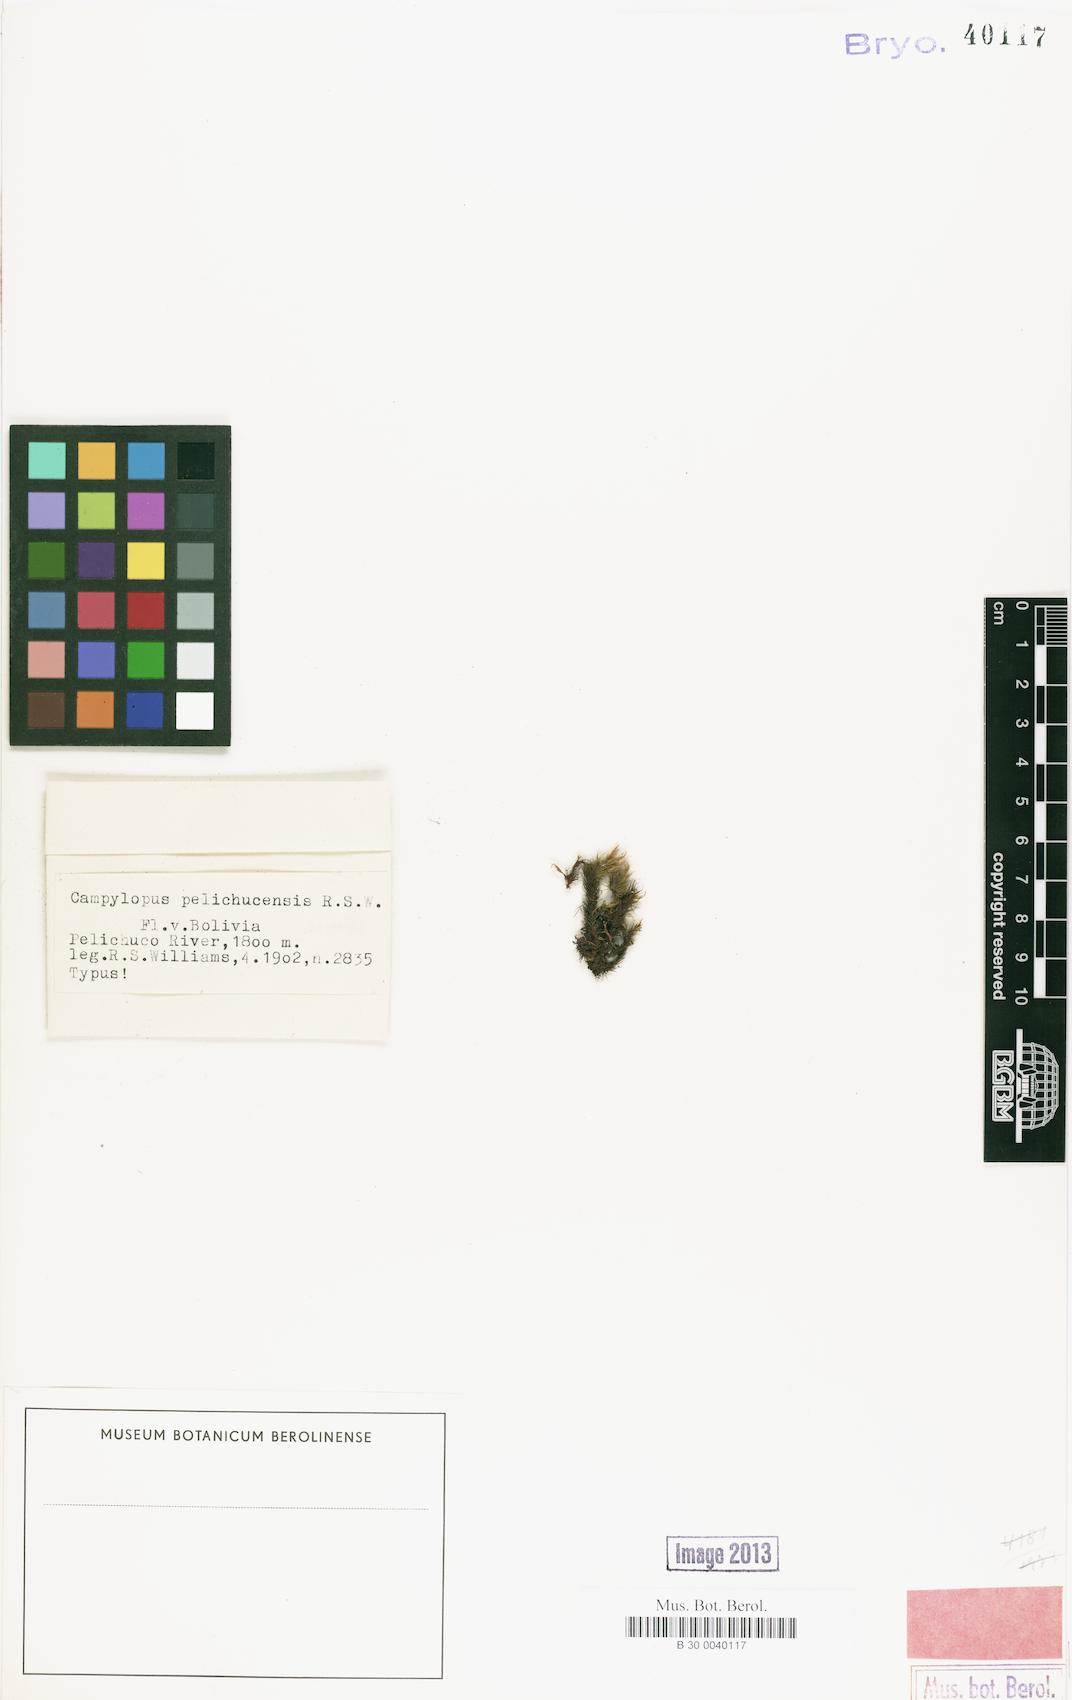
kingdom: Plantae
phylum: Bryophyta
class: Bryopsida
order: Dicranales
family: Leucobryaceae
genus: Campylopus
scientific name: Campylopus arctocarpus
